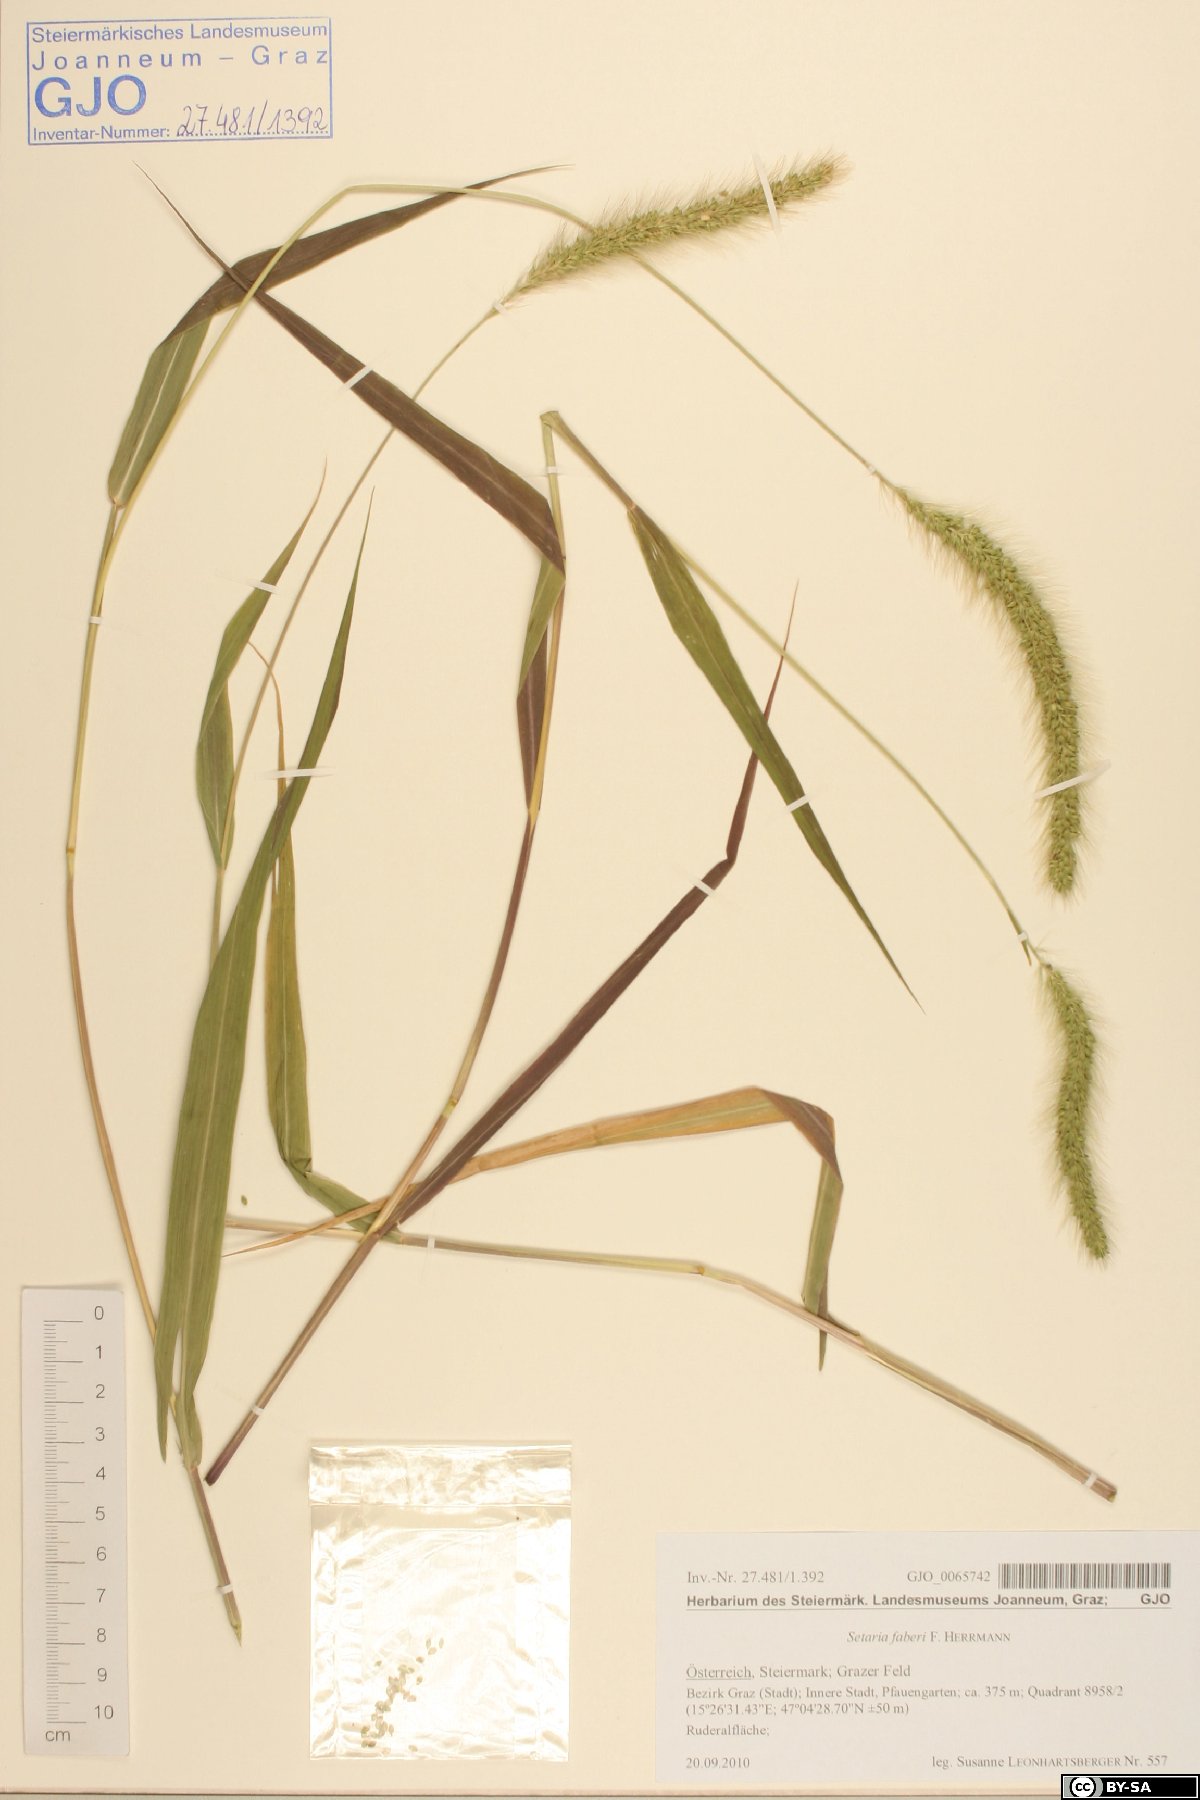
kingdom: Plantae
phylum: Tracheophyta
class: Liliopsida
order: Poales
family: Poaceae
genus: Setaria
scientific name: Setaria faberi
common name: Nodding bristle-grass
